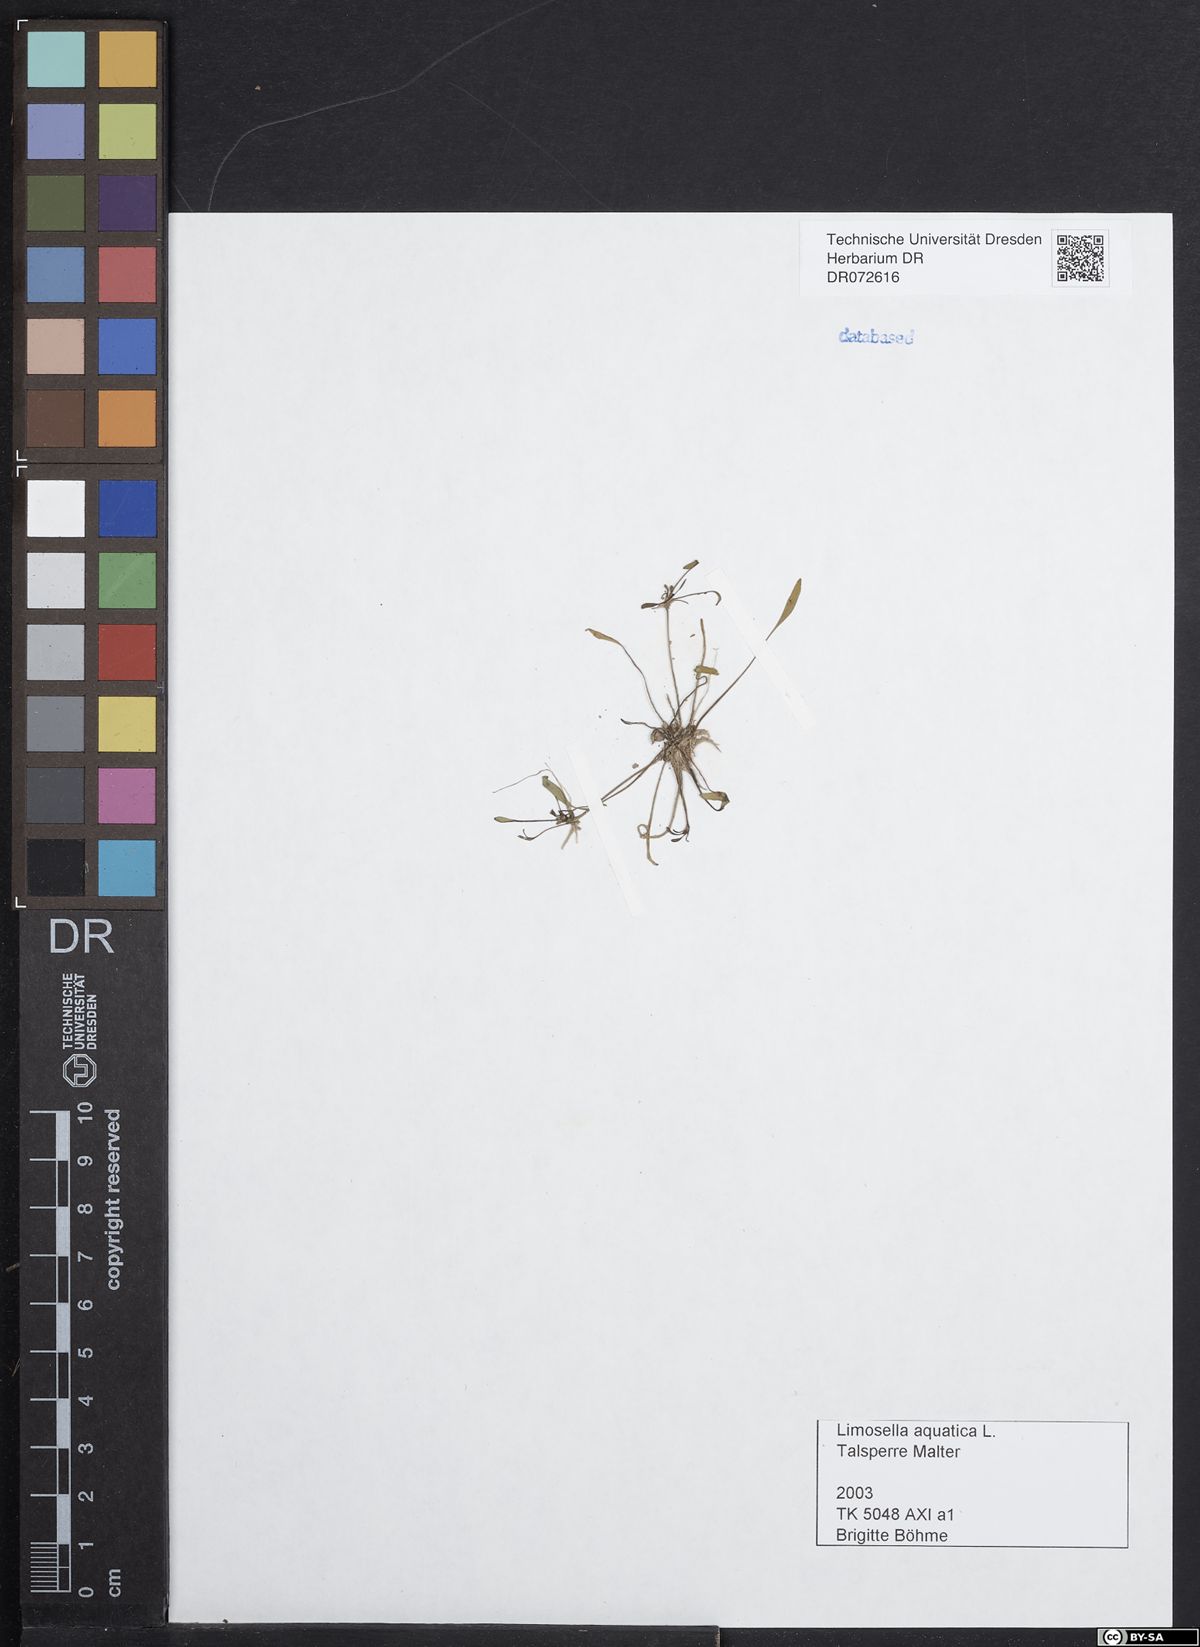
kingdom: Plantae
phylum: Tracheophyta
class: Magnoliopsida
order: Lamiales
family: Scrophulariaceae
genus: Limosella
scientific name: Limosella aquatica
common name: Mudwort
